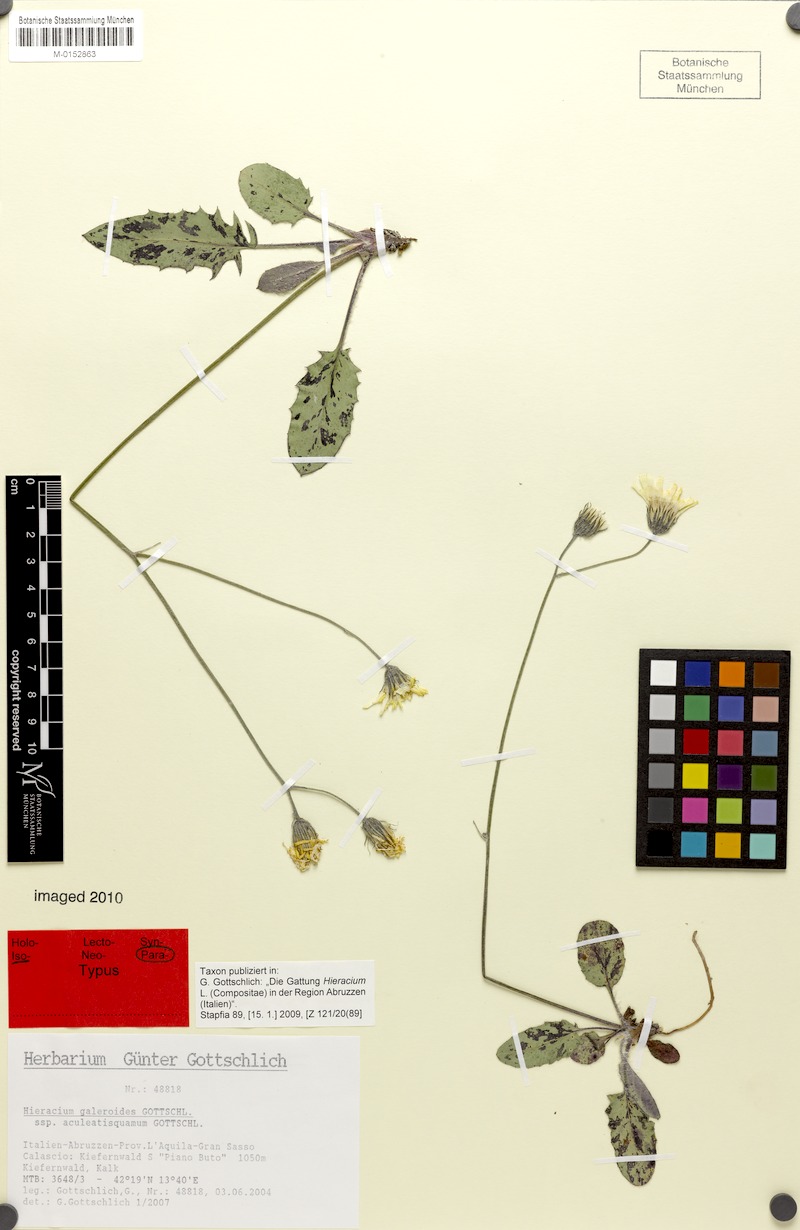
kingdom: Plantae
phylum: Tracheophyta
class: Magnoliopsida
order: Asterales
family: Asteraceae
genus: Hieracium
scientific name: Hieracium galeroides
